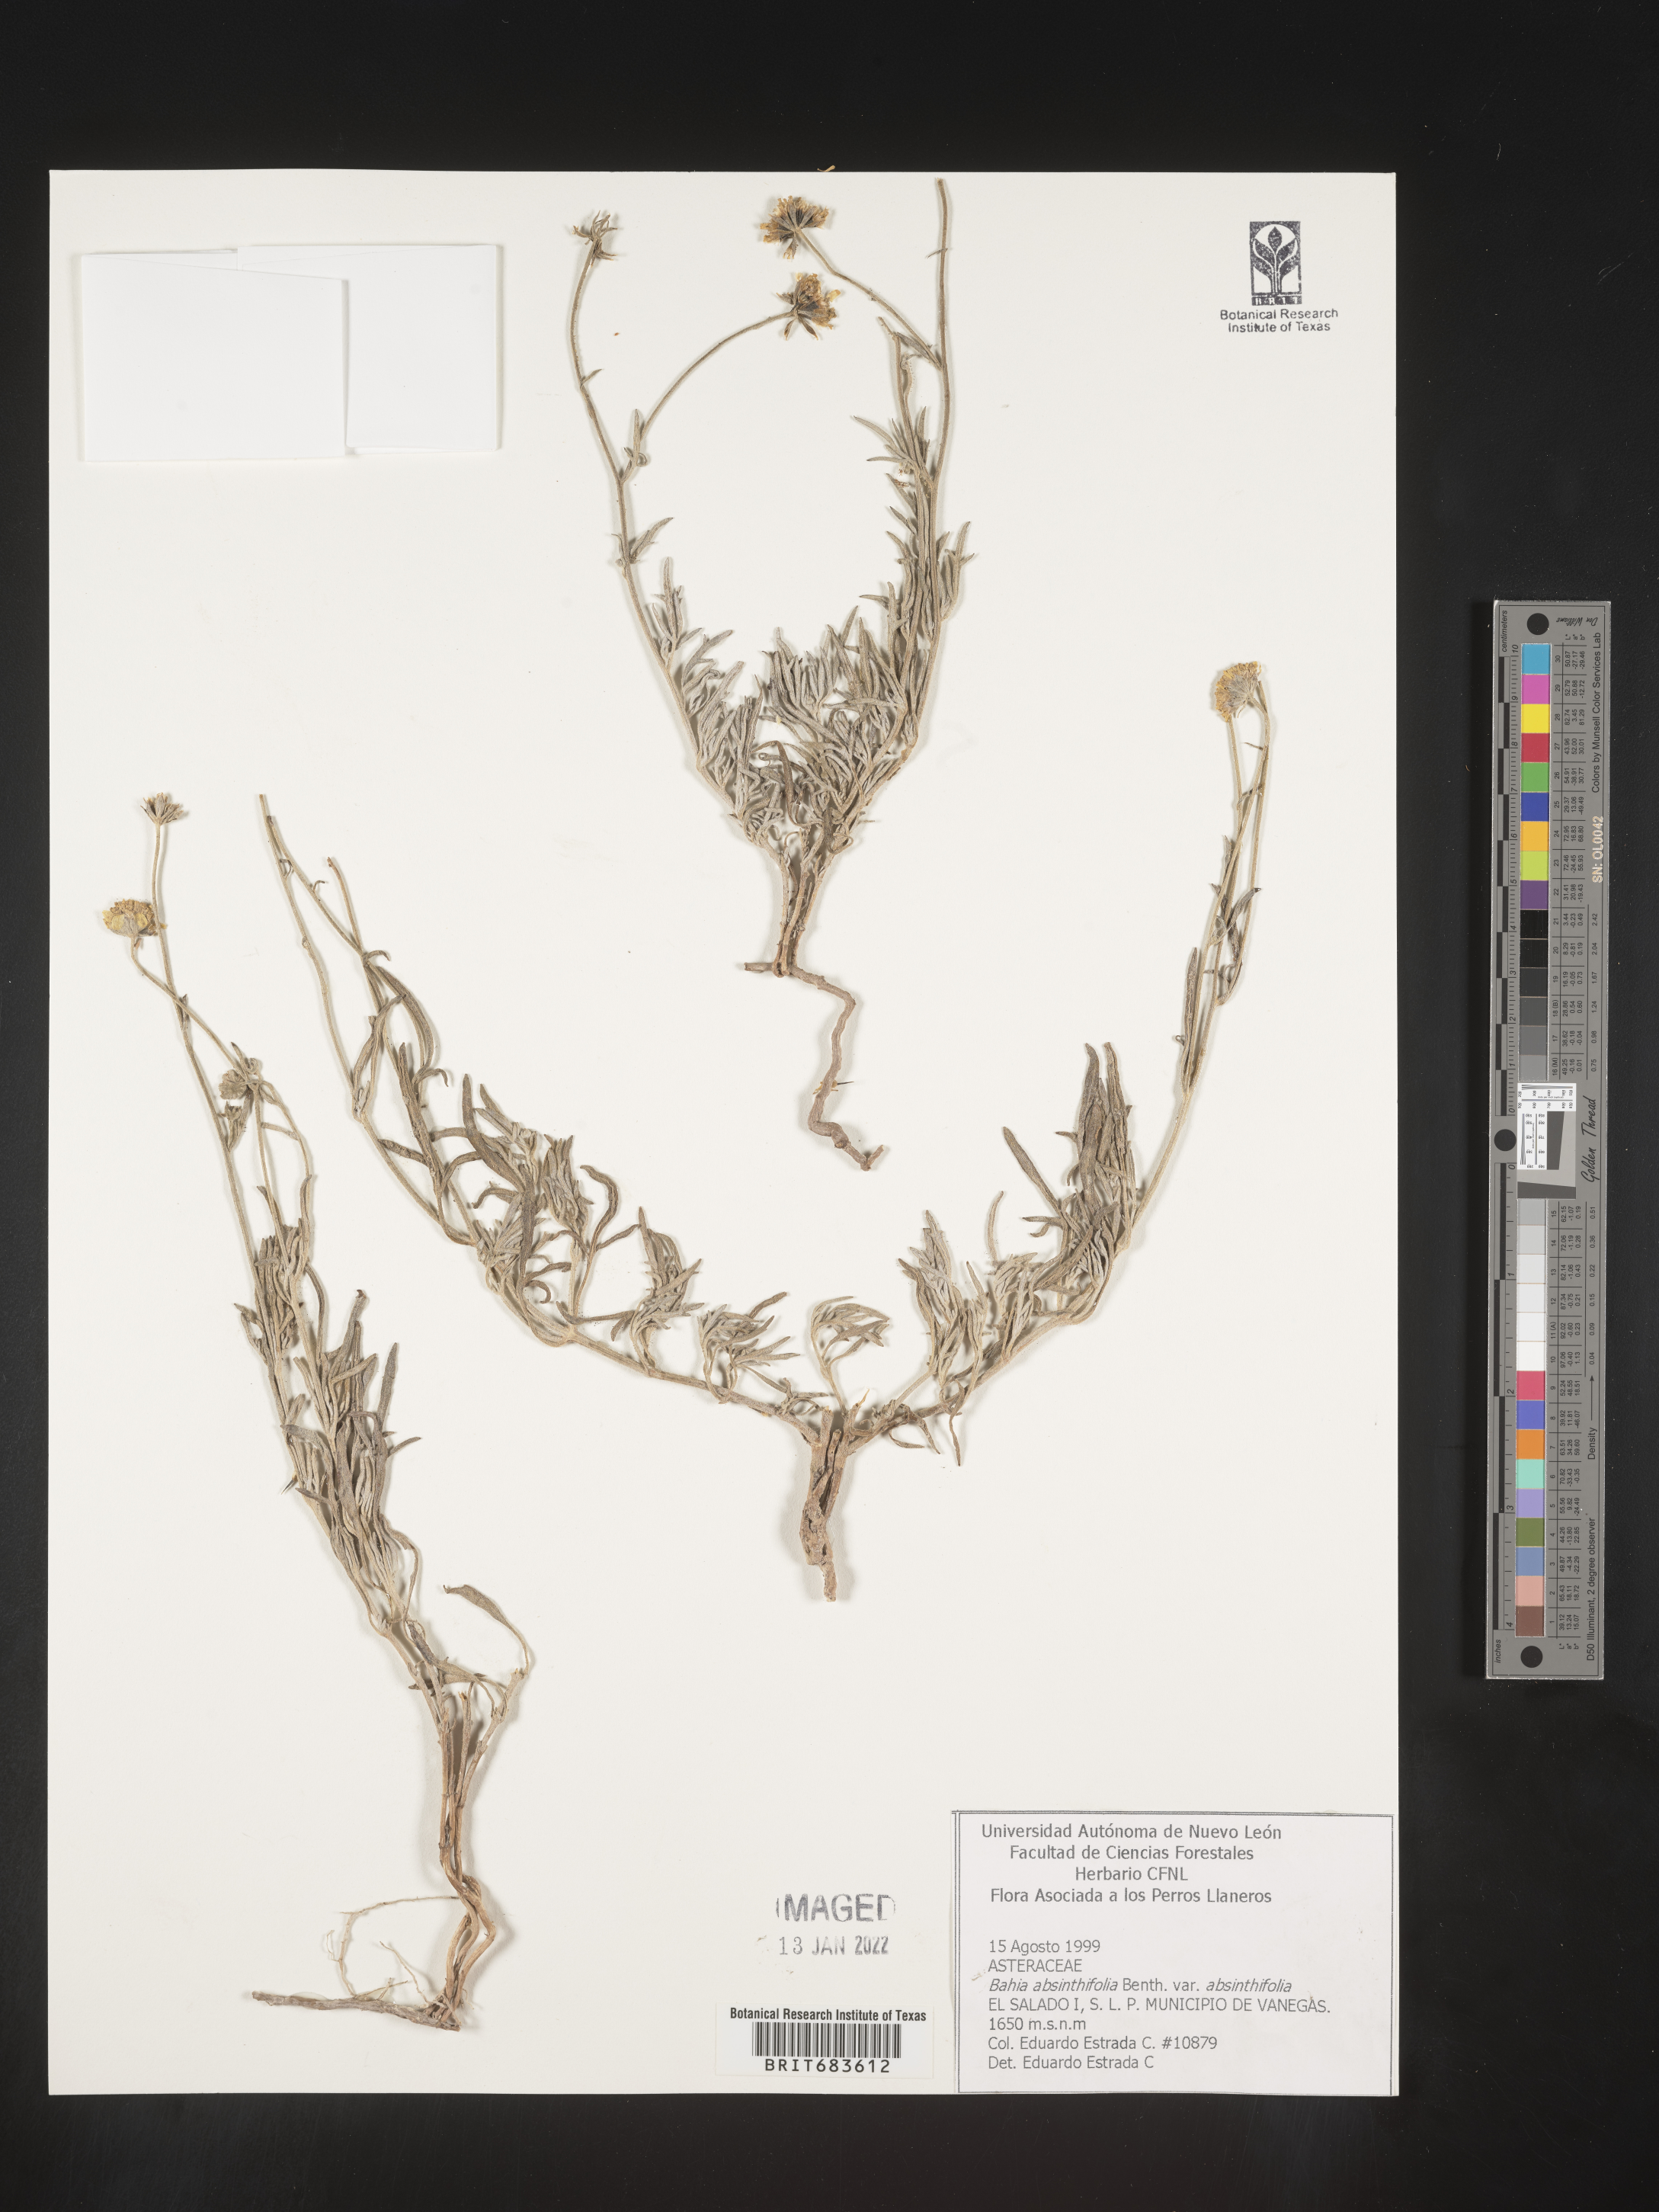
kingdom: Plantae
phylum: Tracheophyta
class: Magnoliopsida
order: Asterales
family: Asteraceae
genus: Picradeniopsis
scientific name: Picradeniopsis absinthifolia
